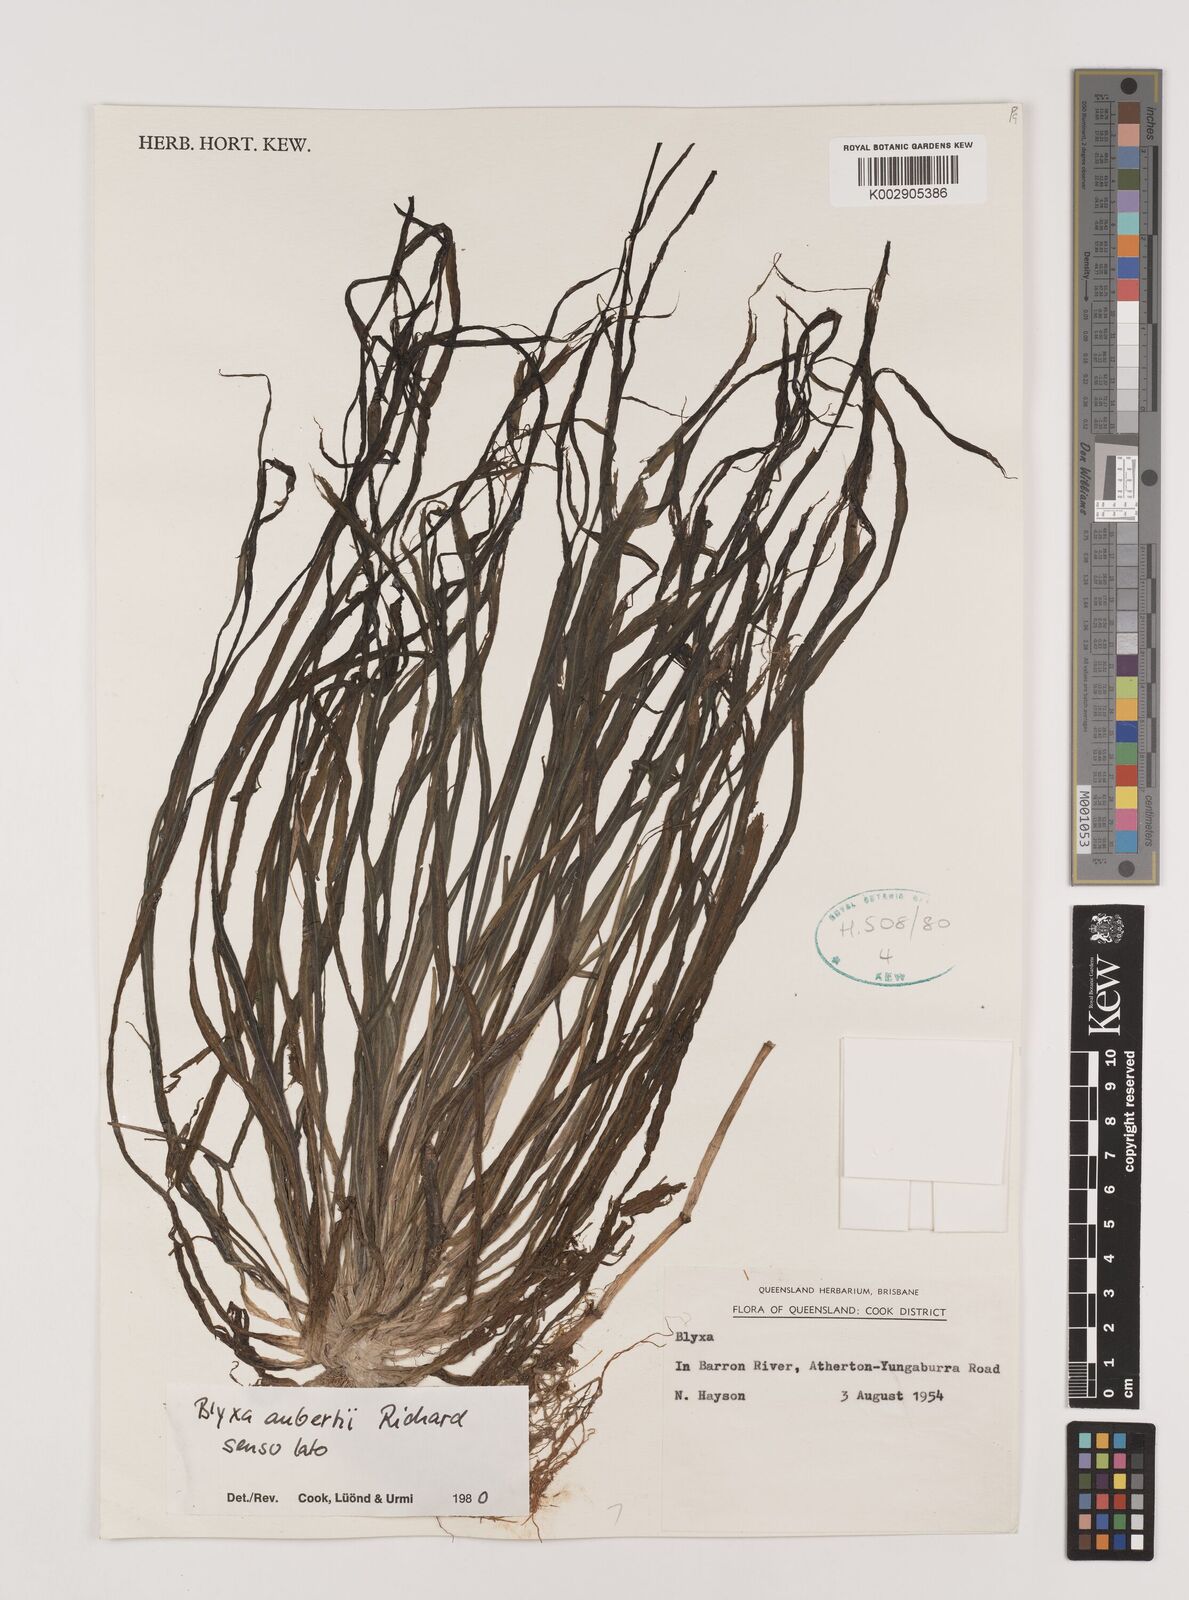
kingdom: Plantae
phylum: Tracheophyta
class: Liliopsida
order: Alismatales
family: Hydrocharitaceae
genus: Blyxa
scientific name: Blyxa aubertii
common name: Roundfruit blyxa
